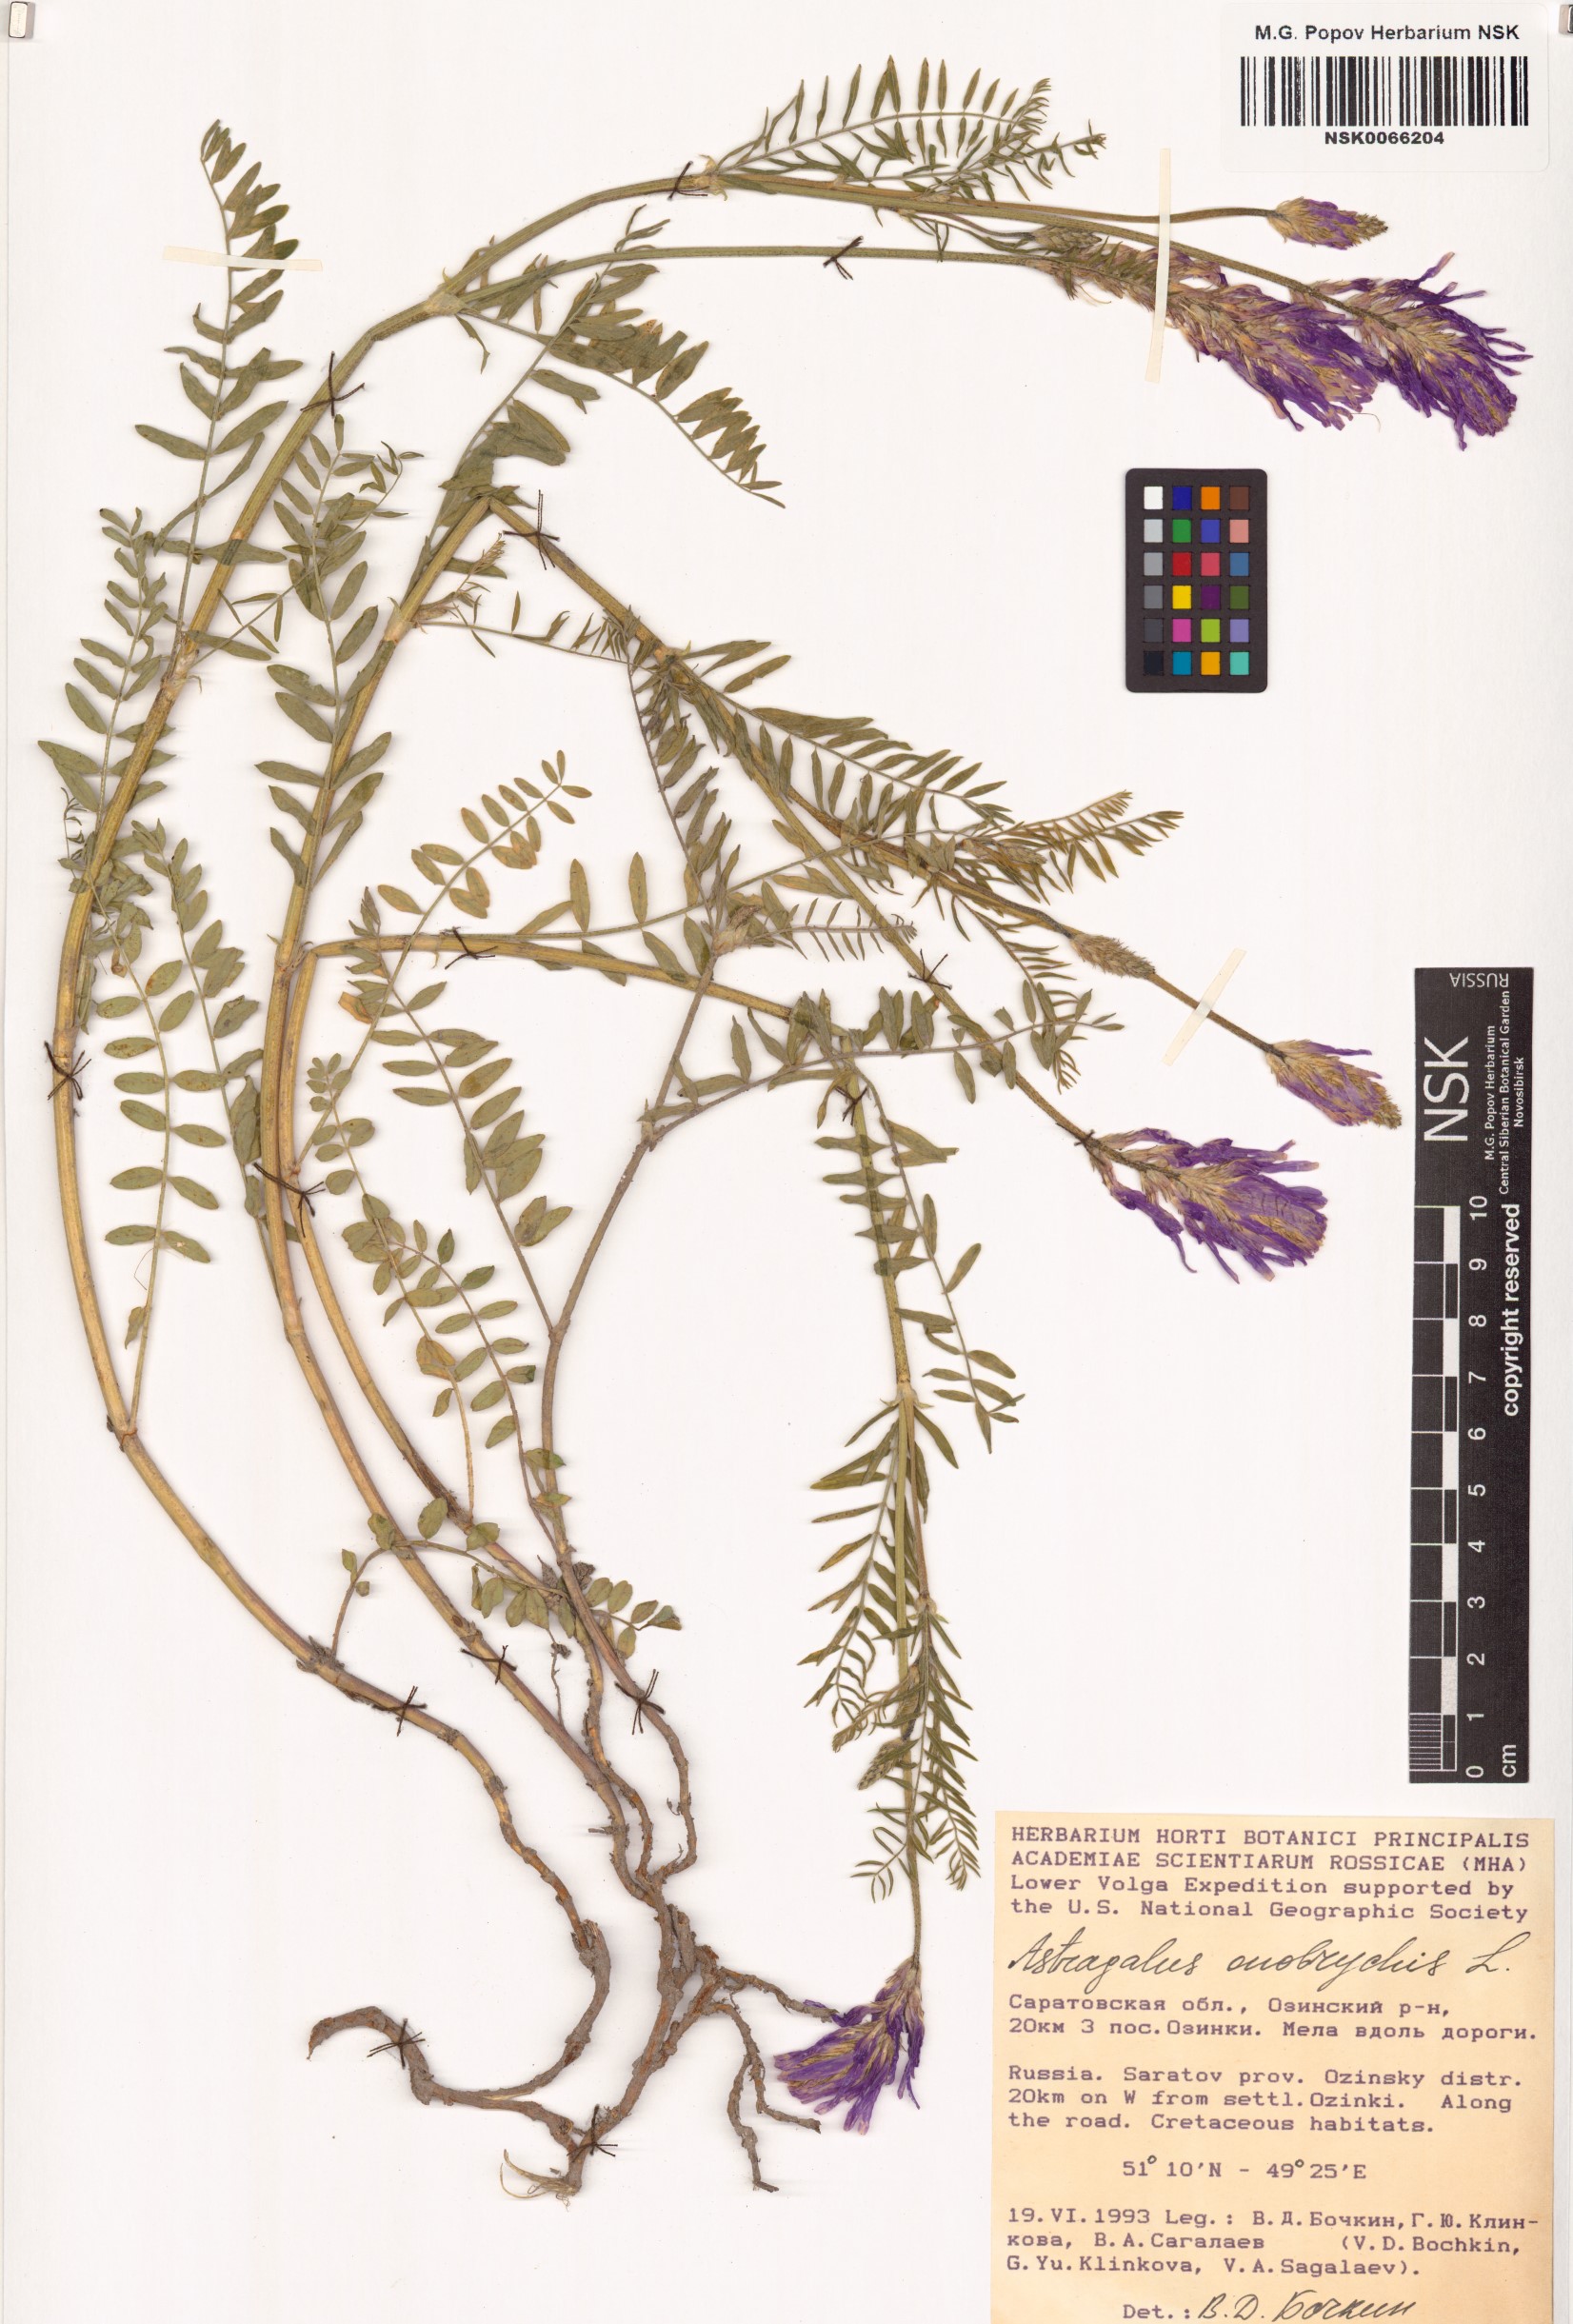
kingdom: Plantae
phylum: Tracheophyta
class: Magnoliopsida
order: Fabales
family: Fabaceae
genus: Astragalus
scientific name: Astragalus onobrychis
